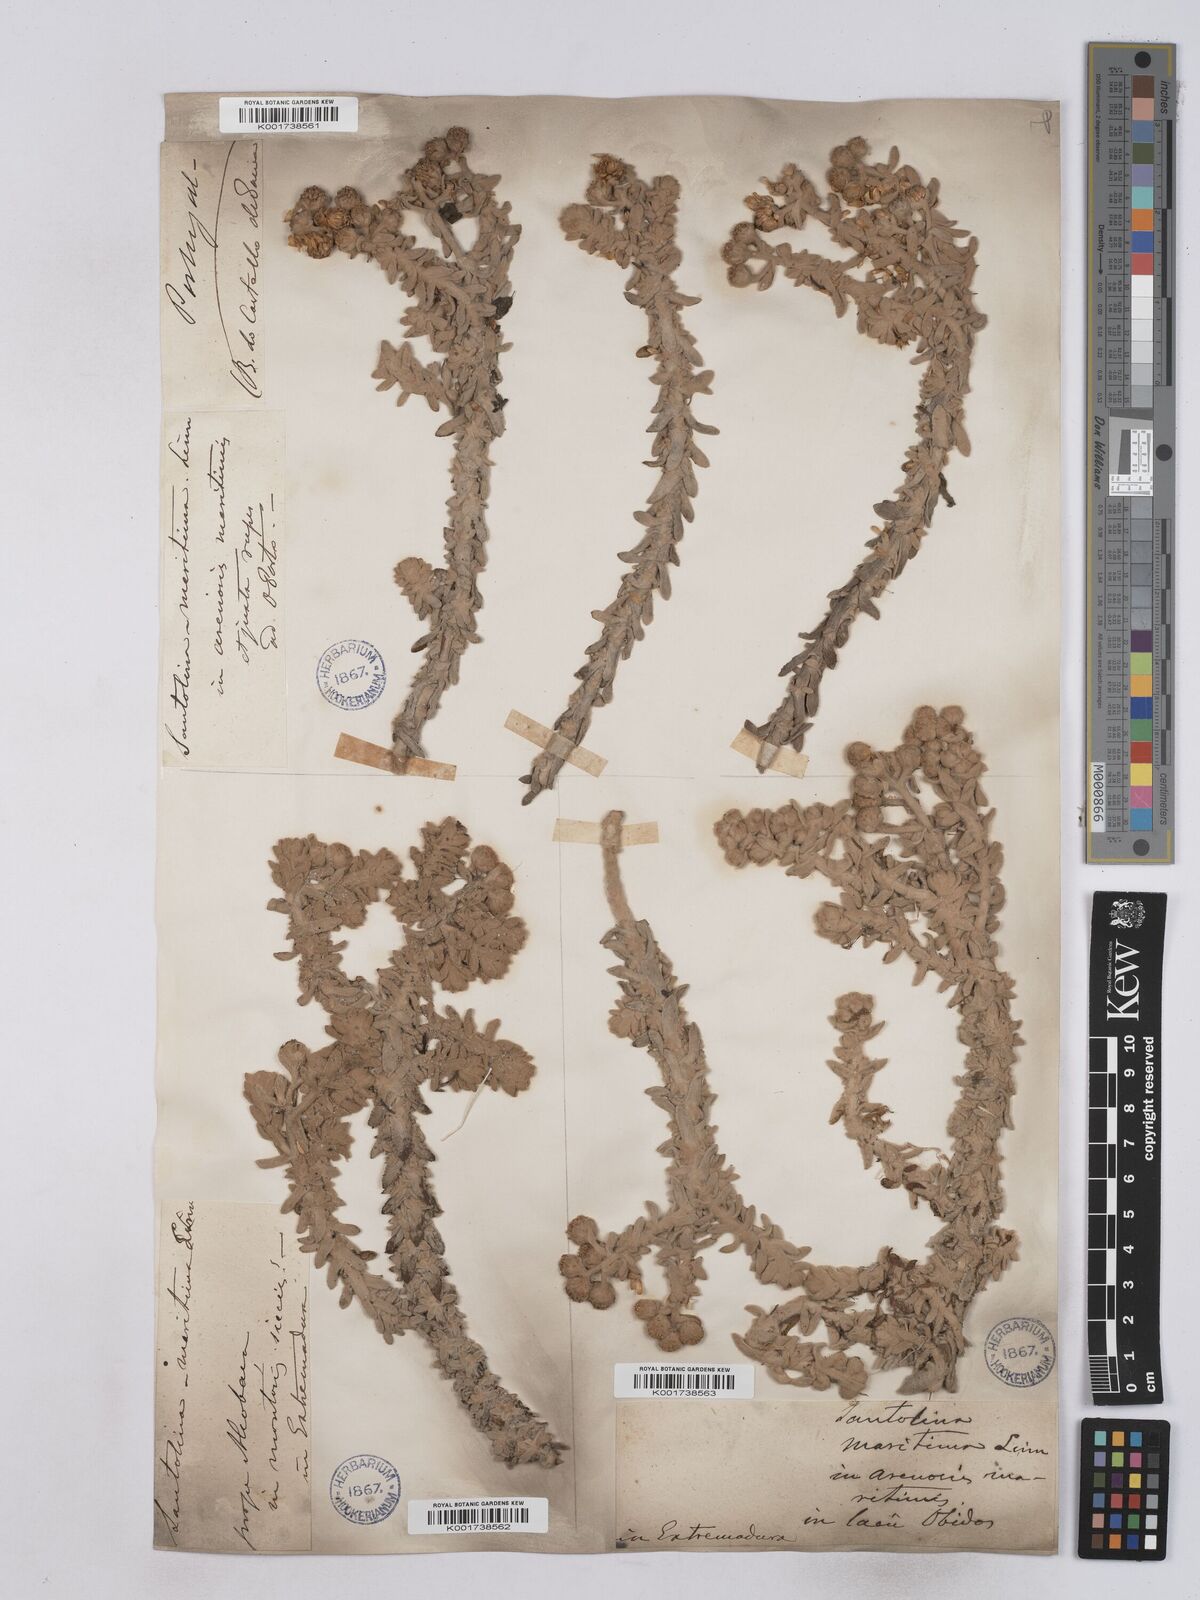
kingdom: Plantae
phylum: Tracheophyta
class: Magnoliopsida
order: Asterales
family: Asteraceae
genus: Achillea
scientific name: Achillea maritima
